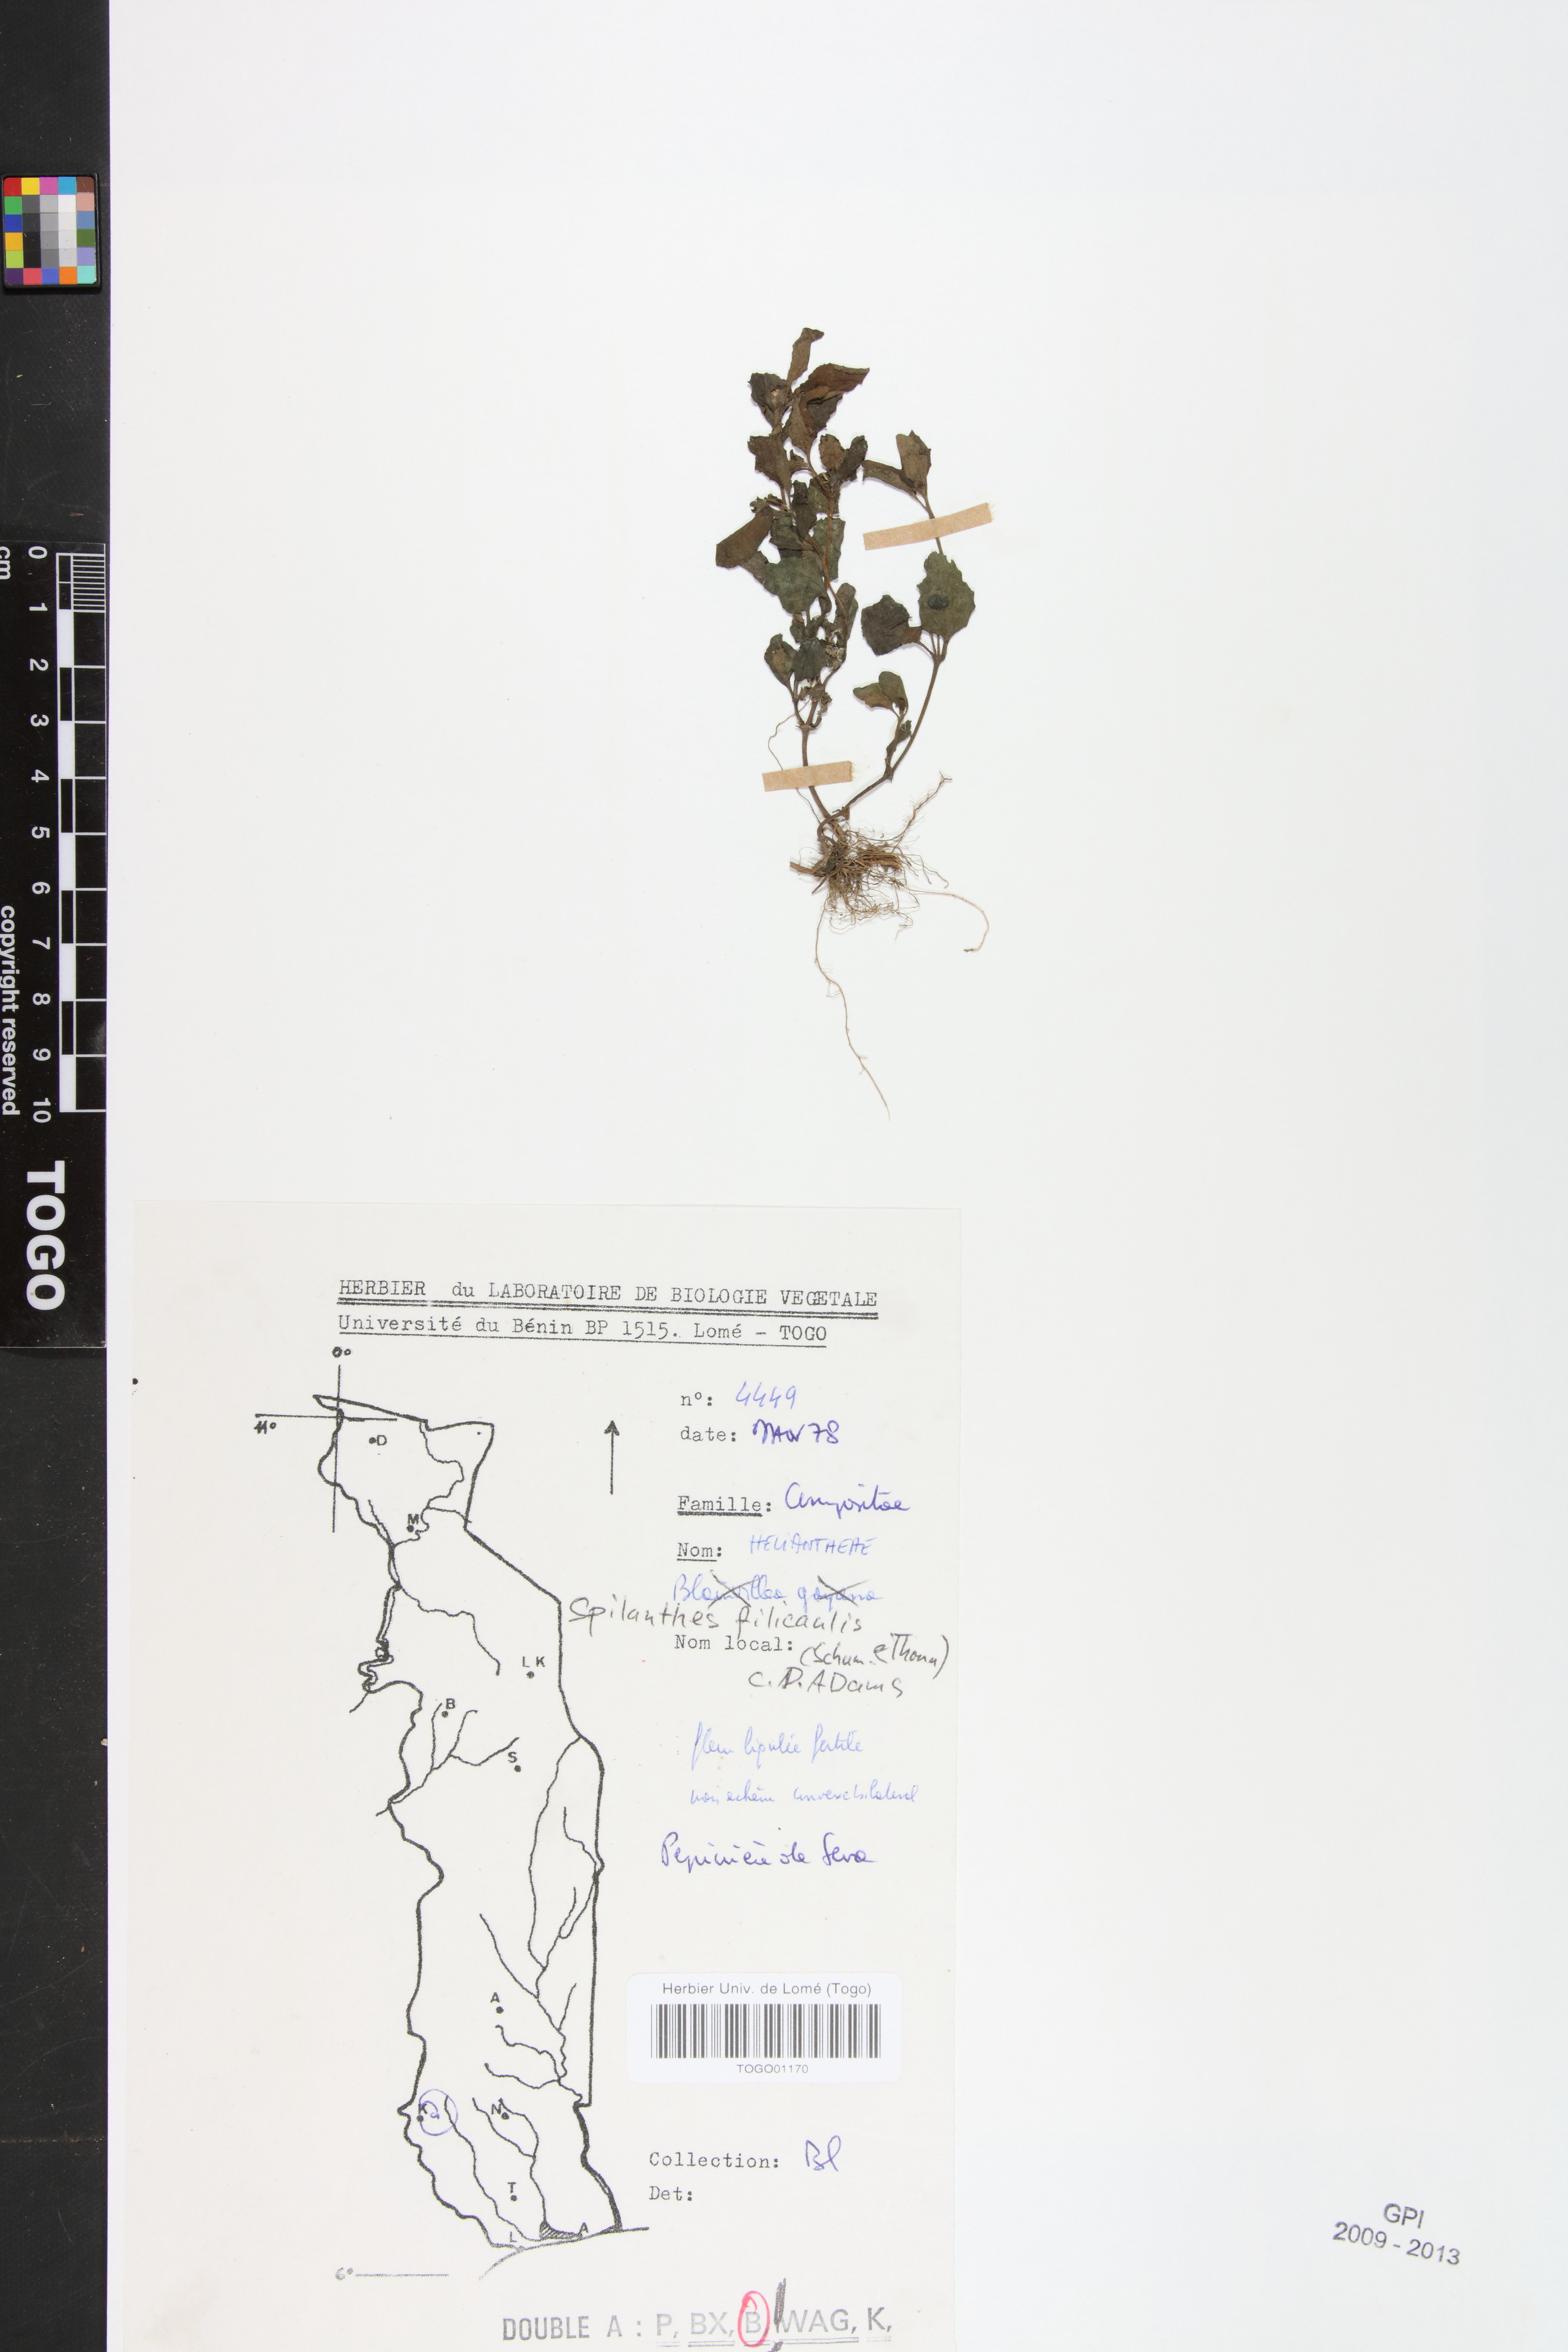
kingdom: Plantae
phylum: Tracheophyta
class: Magnoliopsida
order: Asterales
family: Asteraceae
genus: Acmella
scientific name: Acmella caulirhiza
